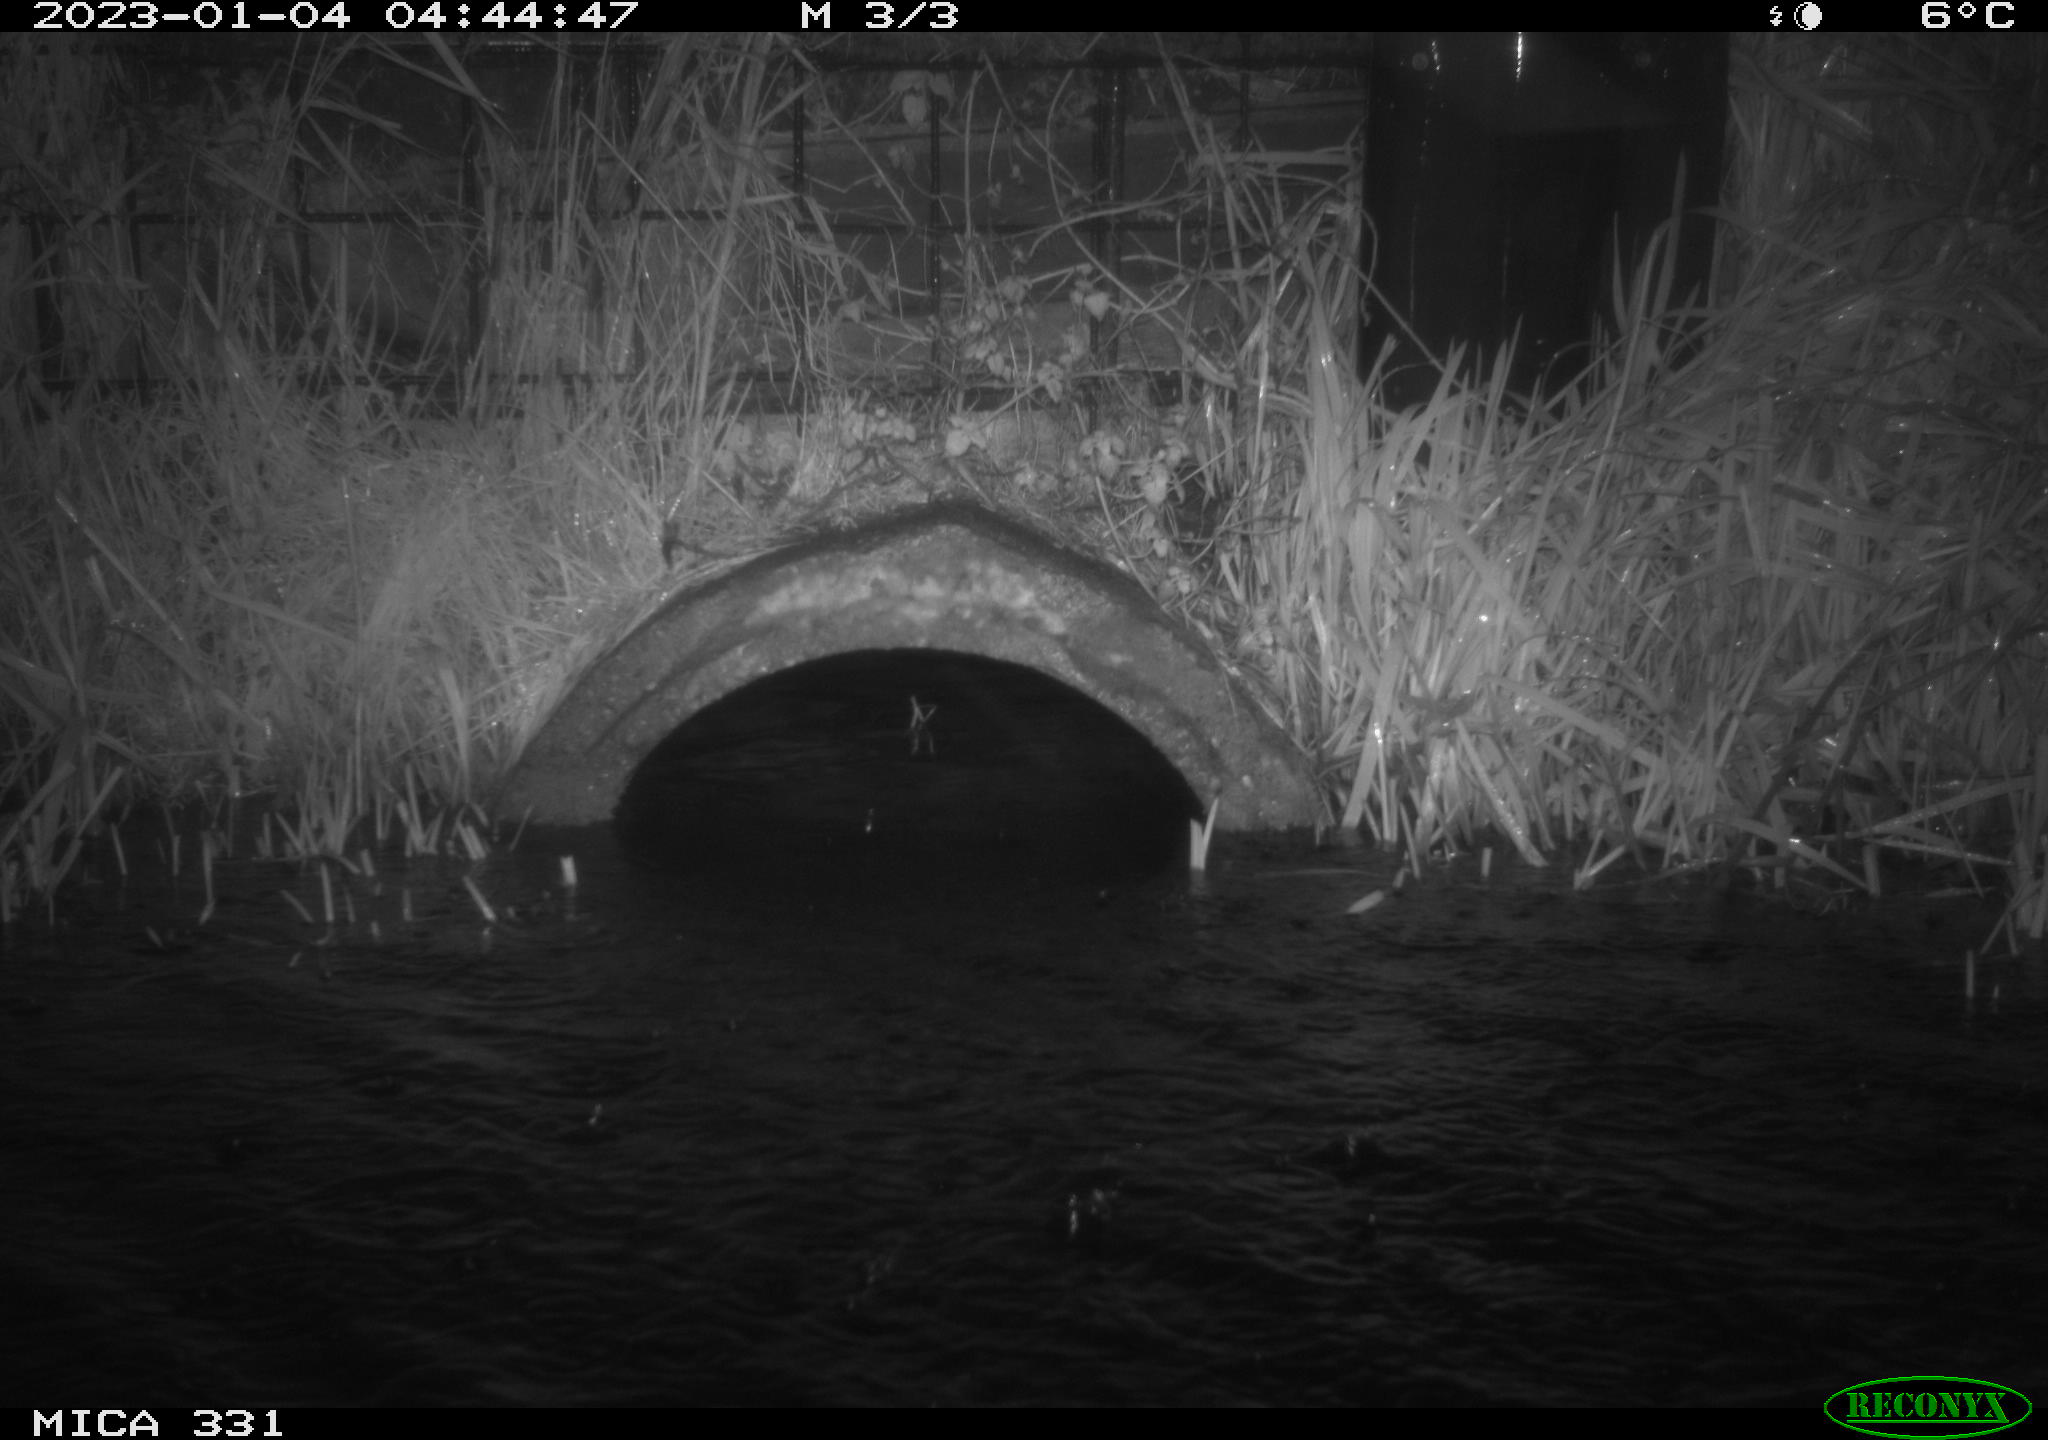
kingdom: Animalia
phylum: Chordata
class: Mammalia
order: Carnivora
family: Canidae
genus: Vulpes
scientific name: Vulpes vulpes
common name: Red fox
